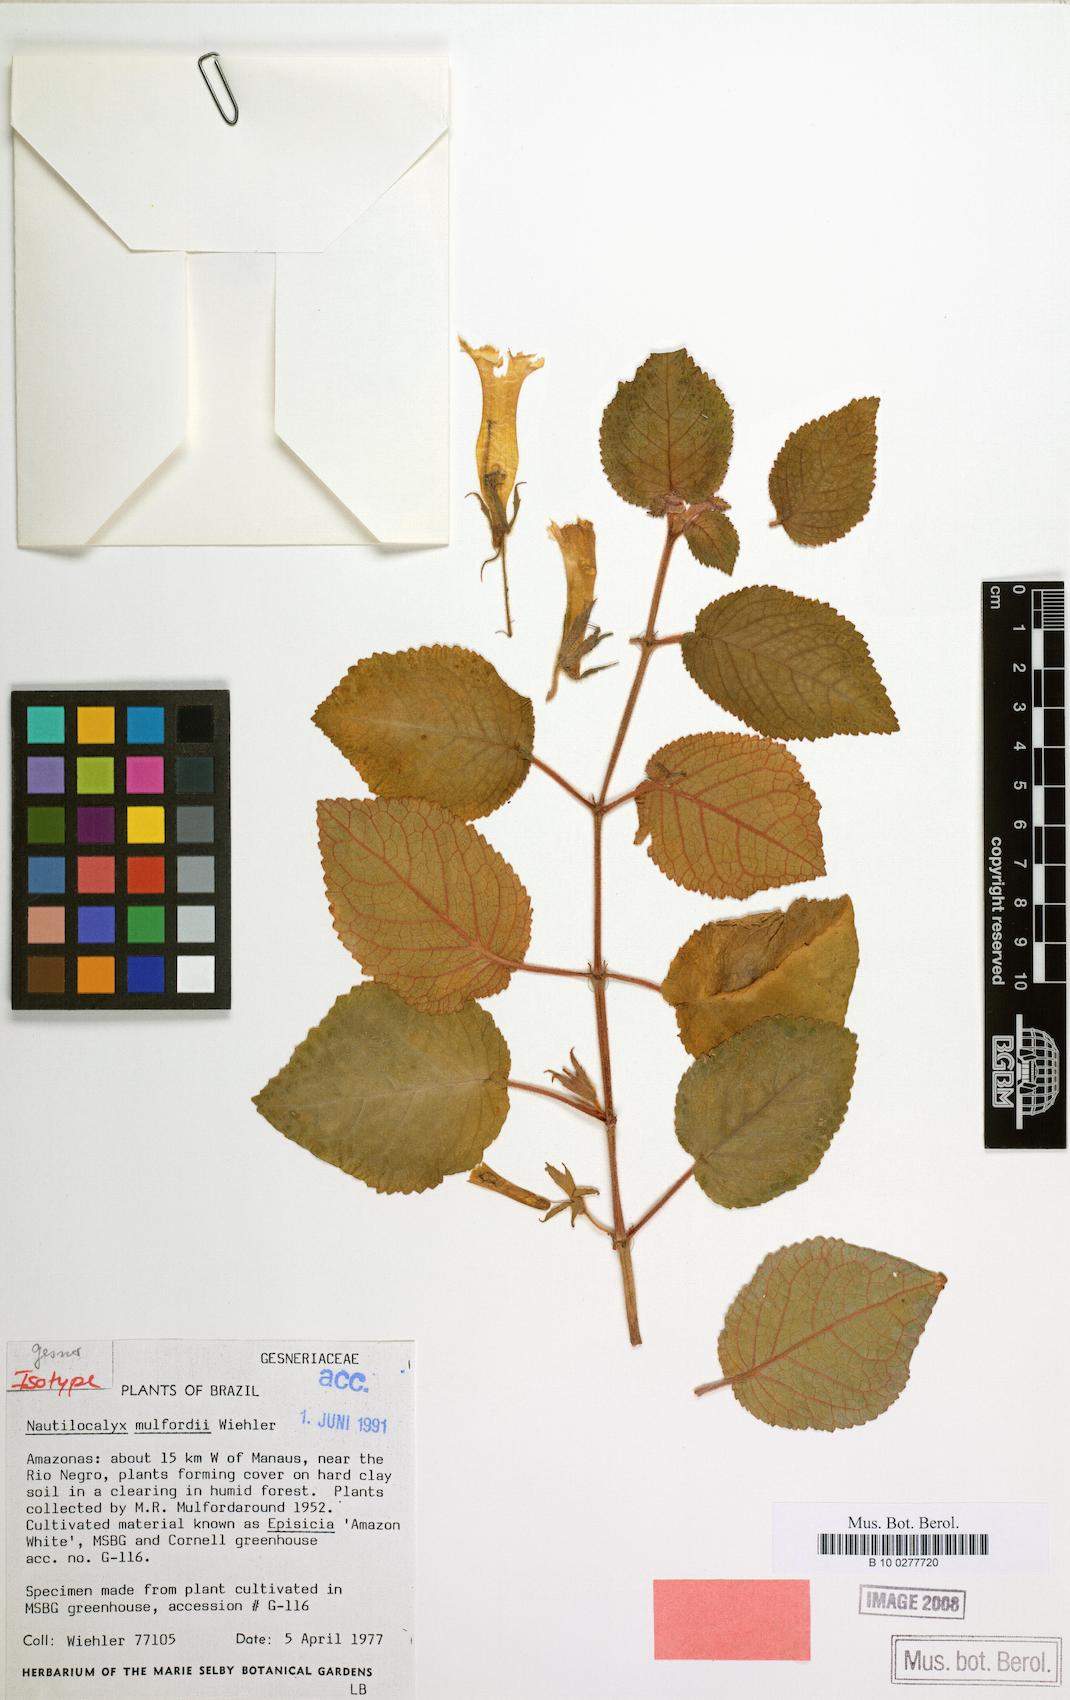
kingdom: Plantae
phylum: Tracheophyta
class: Magnoliopsida
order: Lamiales
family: Gesneriaceae
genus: Nautilocalyx
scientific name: Nautilocalyx mulfordii
